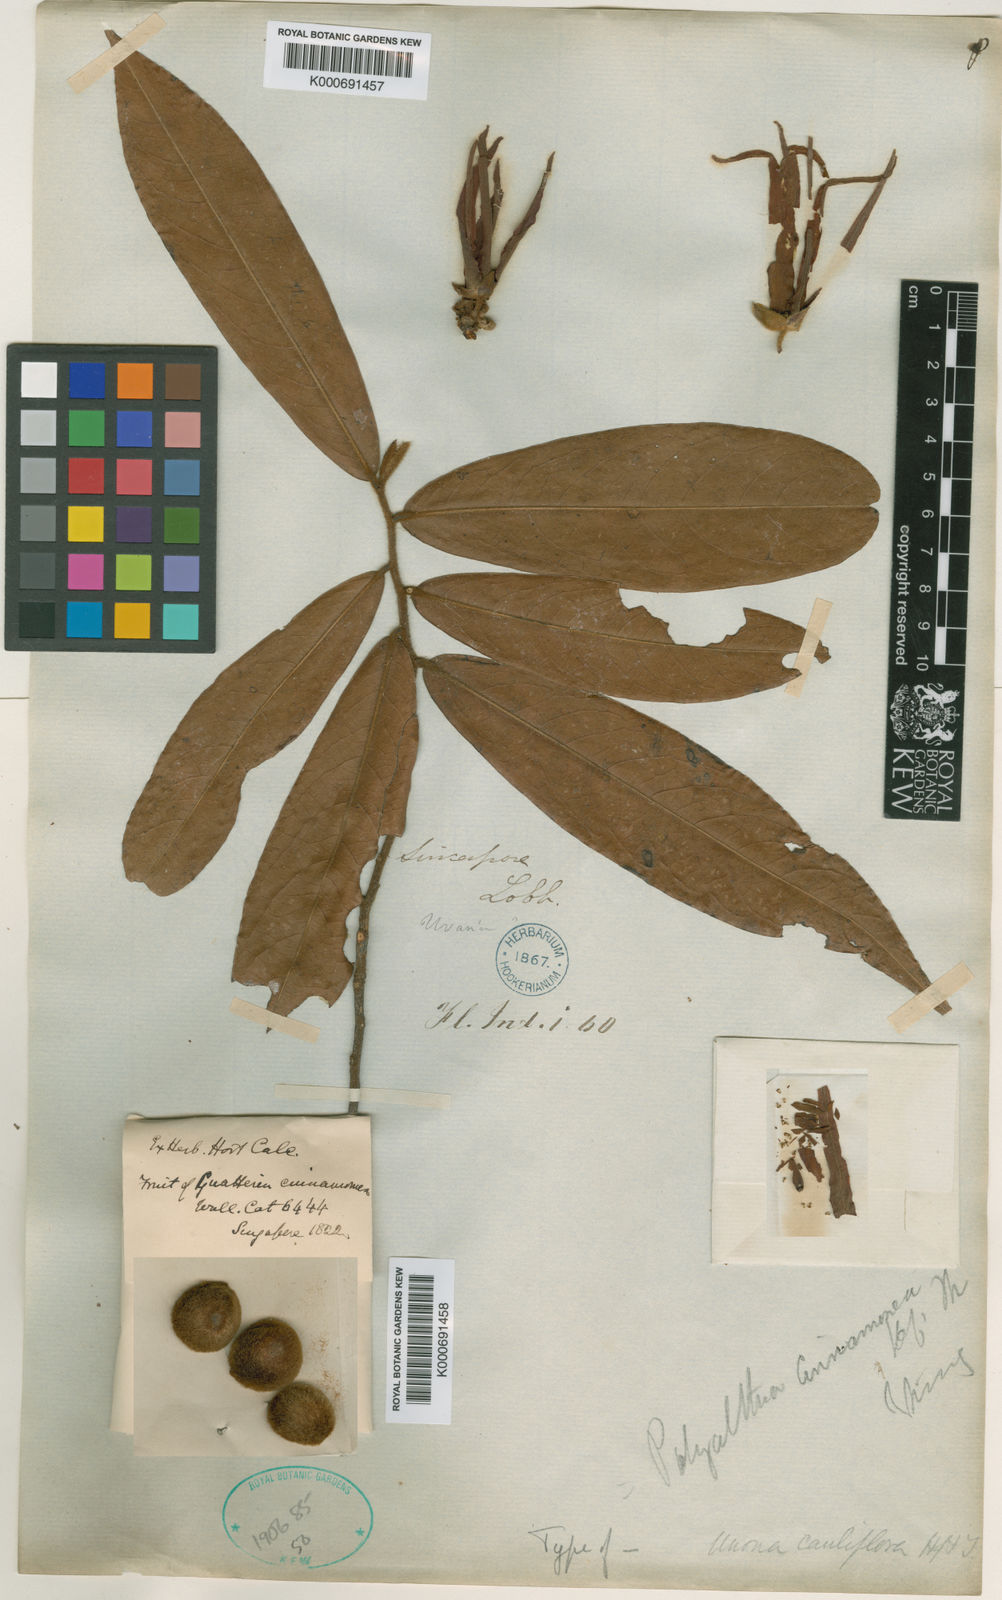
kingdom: Plantae
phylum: Tracheophyta
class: Magnoliopsida
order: Magnoliales
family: Annonaceae
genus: Polyalthia
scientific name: Polyalthia cinnamomea
